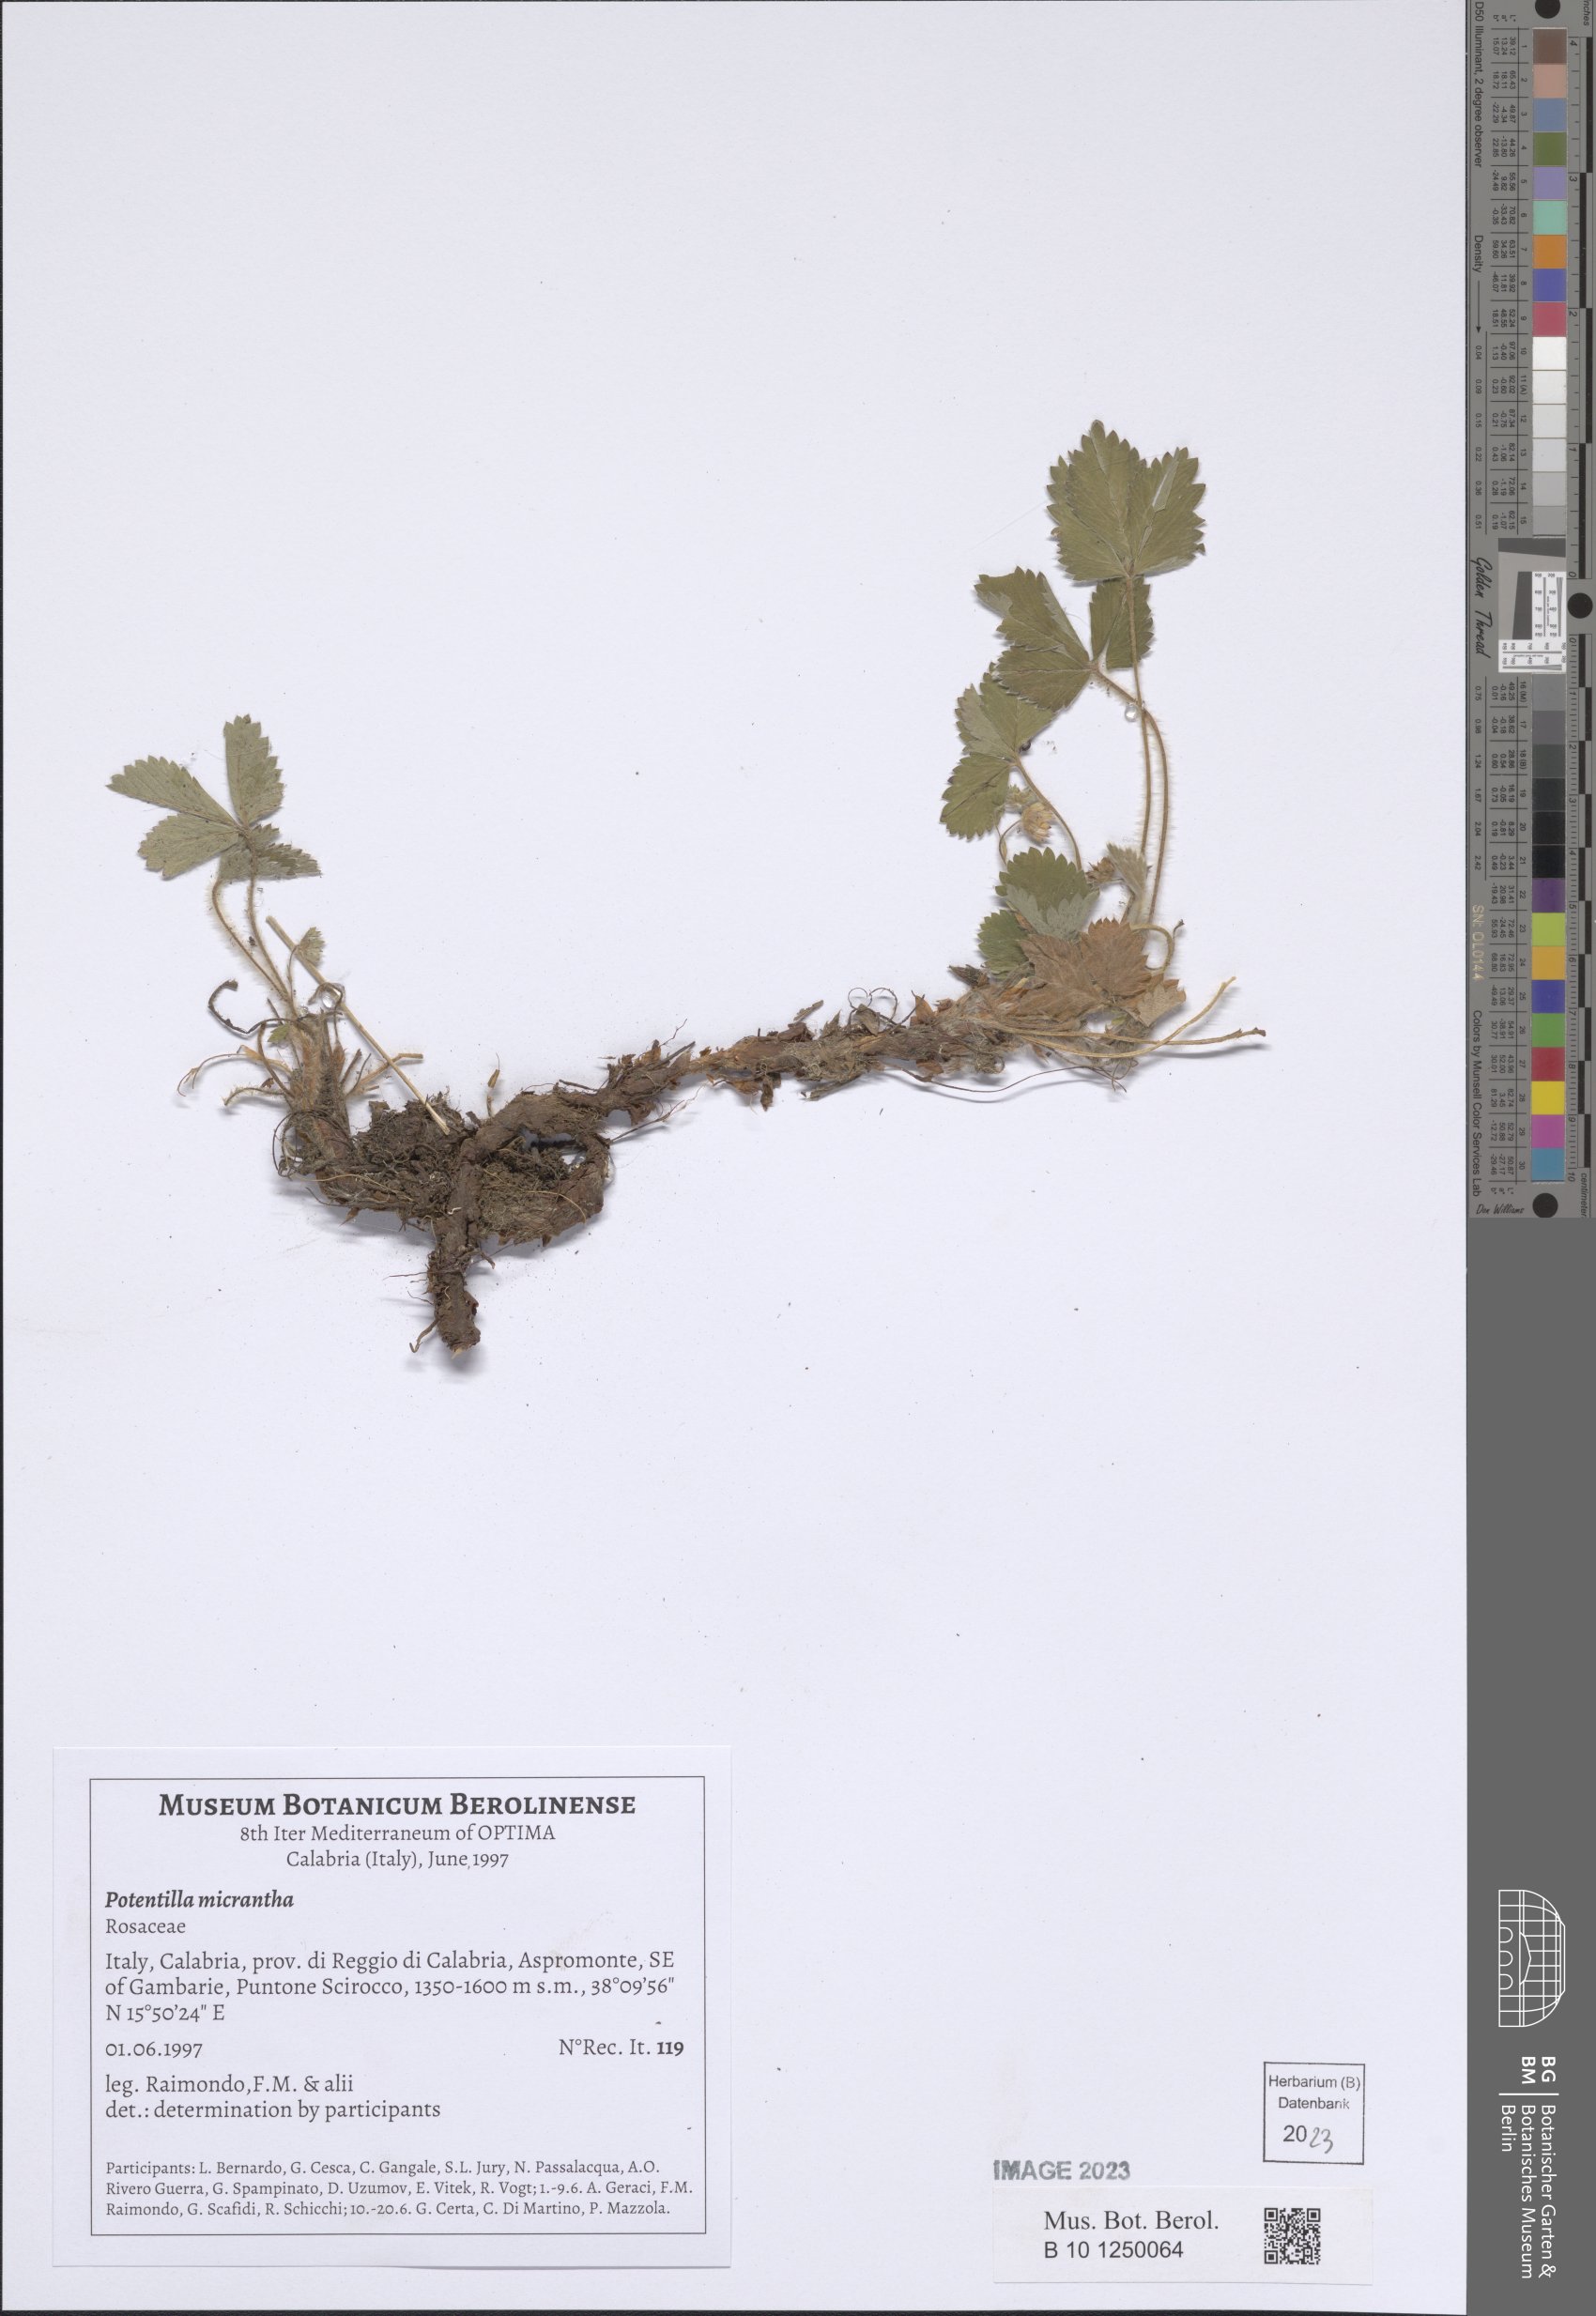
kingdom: Plantae
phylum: Tracheophyta
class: Magnoliopsida
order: Rosales
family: Rosaceae
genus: Potentilla
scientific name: Potentilla micrantha
